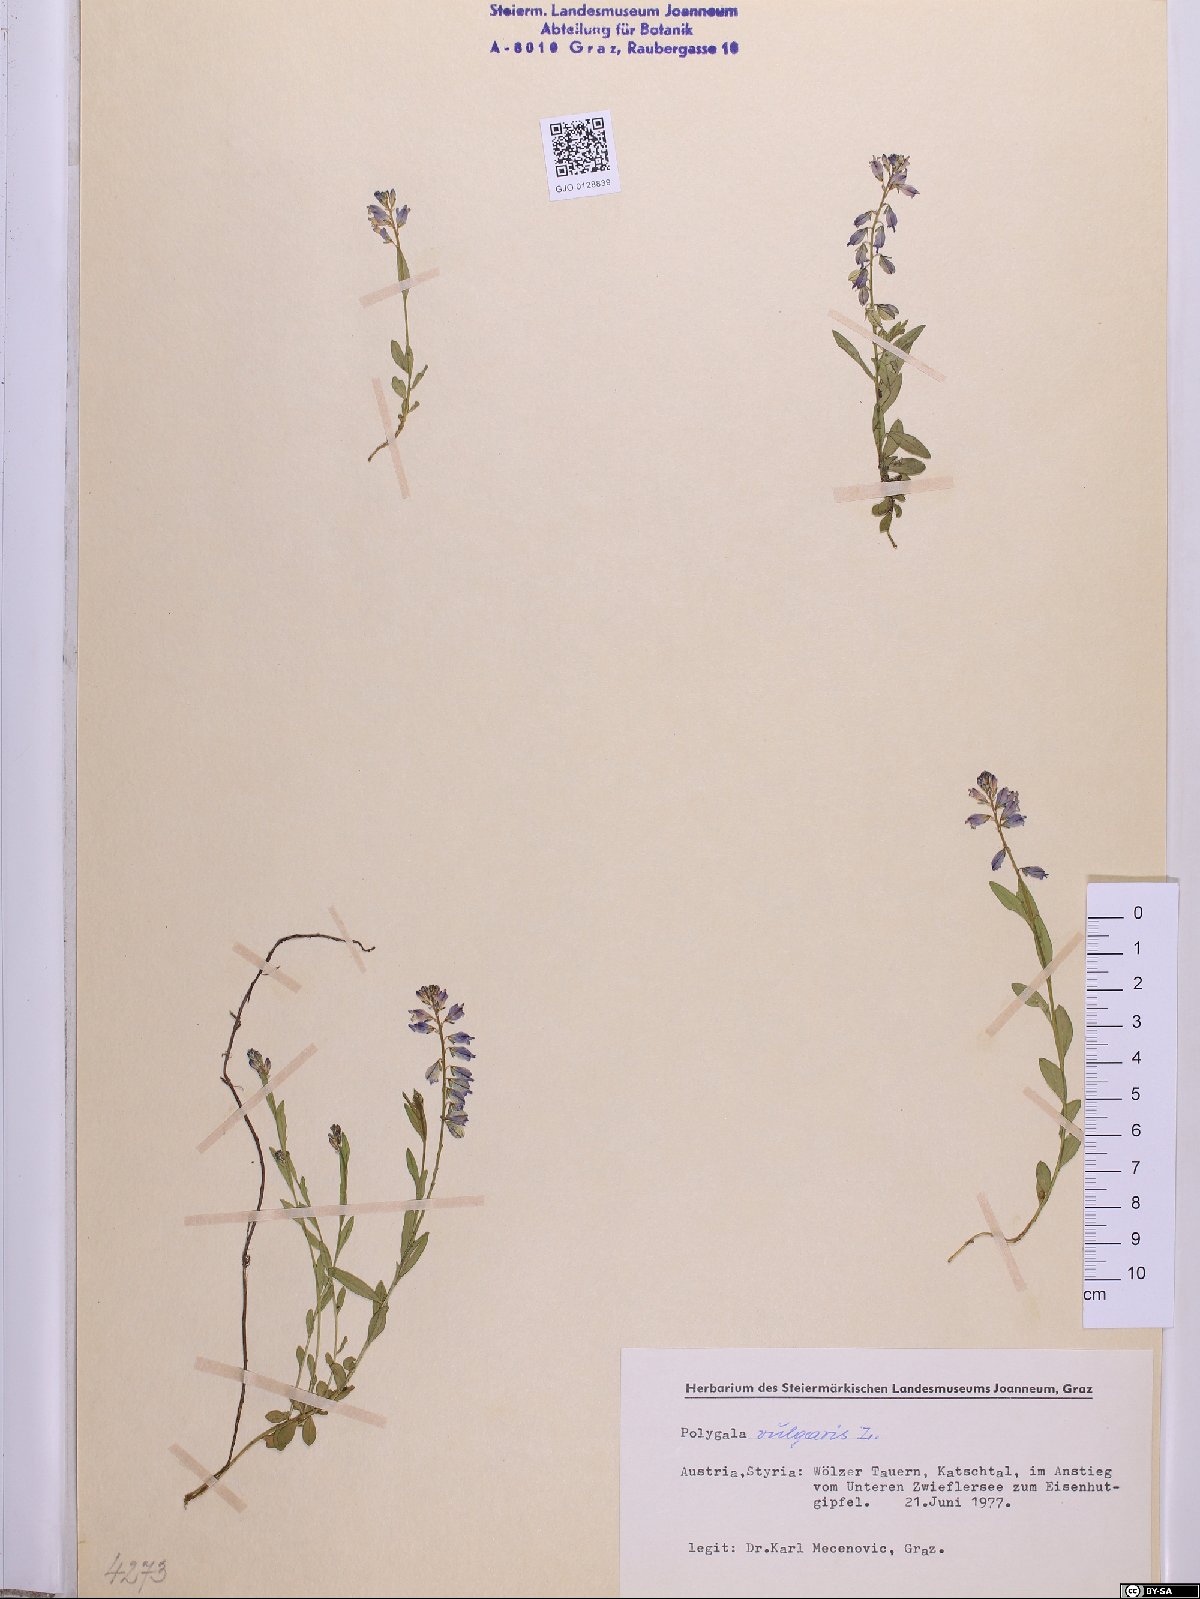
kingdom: Plantae
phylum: Tracheophyta
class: Magnoliopsida
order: Fabales
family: Polygalaceae
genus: Polygala
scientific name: Polygala vulgaris
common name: Common milkwort
